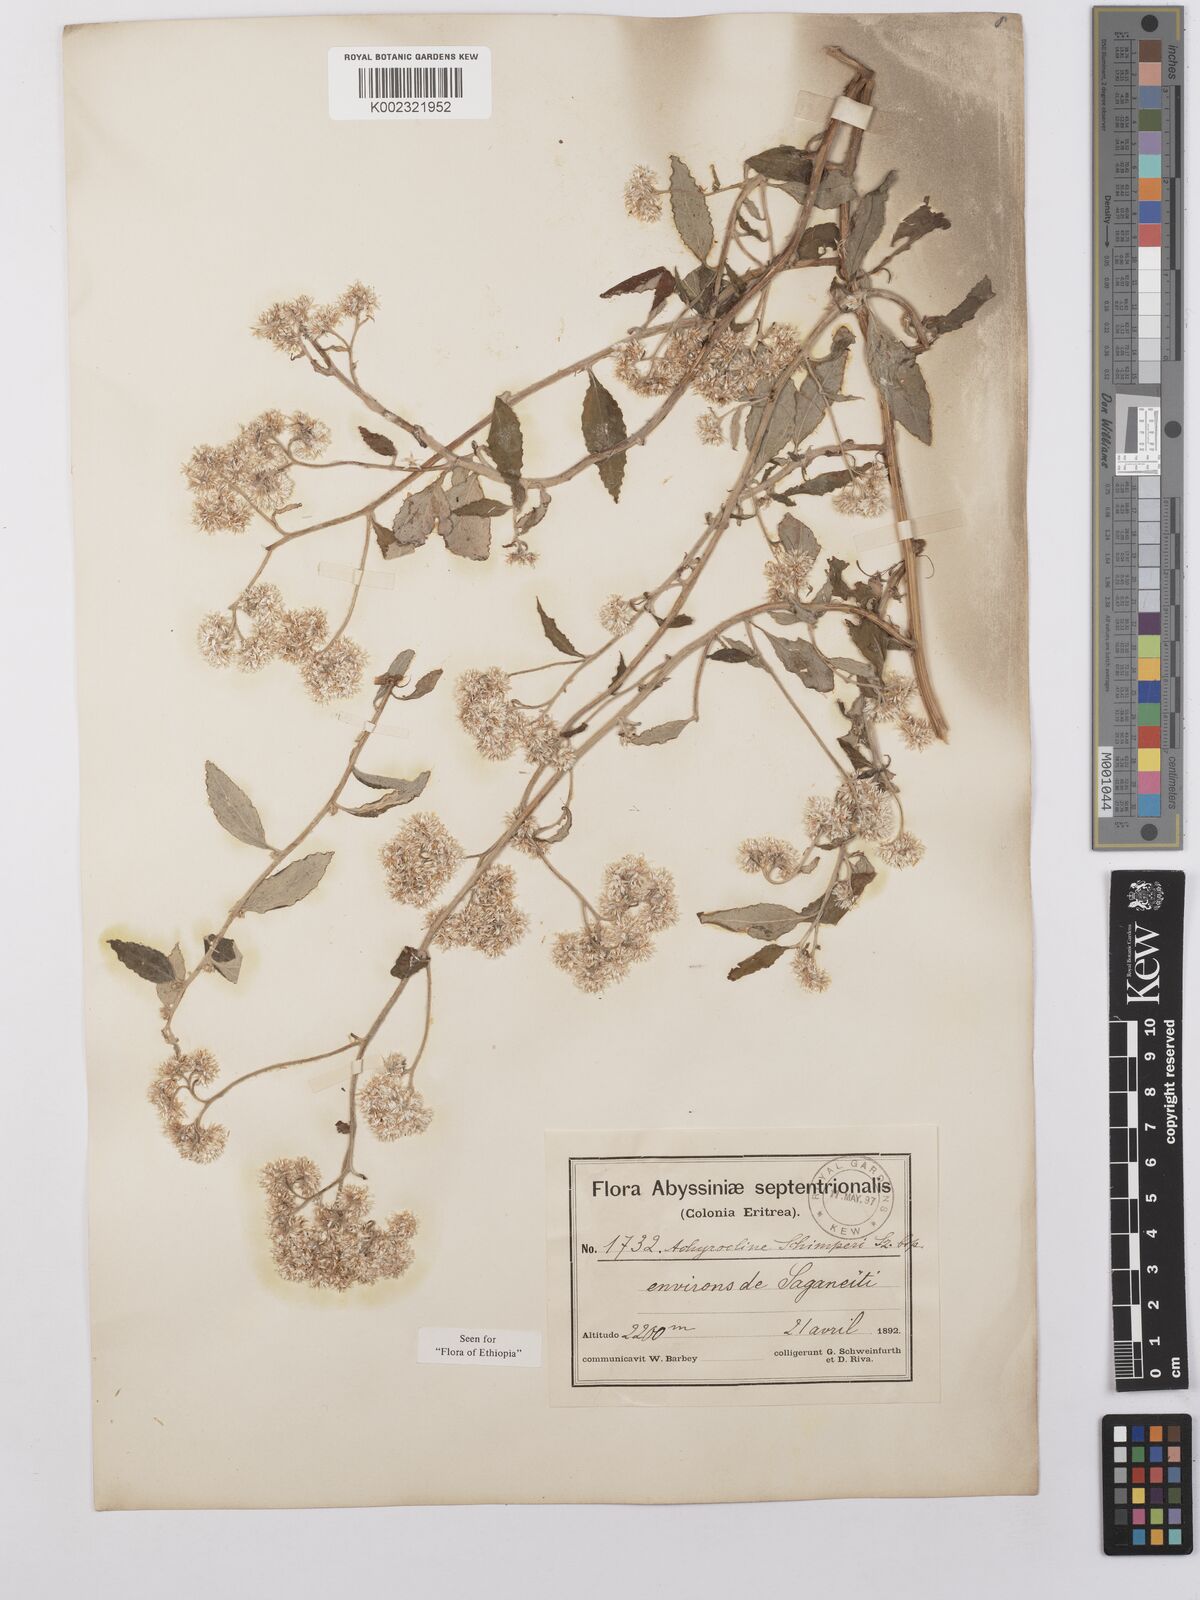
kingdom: Plantae
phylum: Tracheophyta
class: Magnoliopsida
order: Asterales
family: Asteraceae
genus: Helichrysum
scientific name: Helichrysum schimperi
